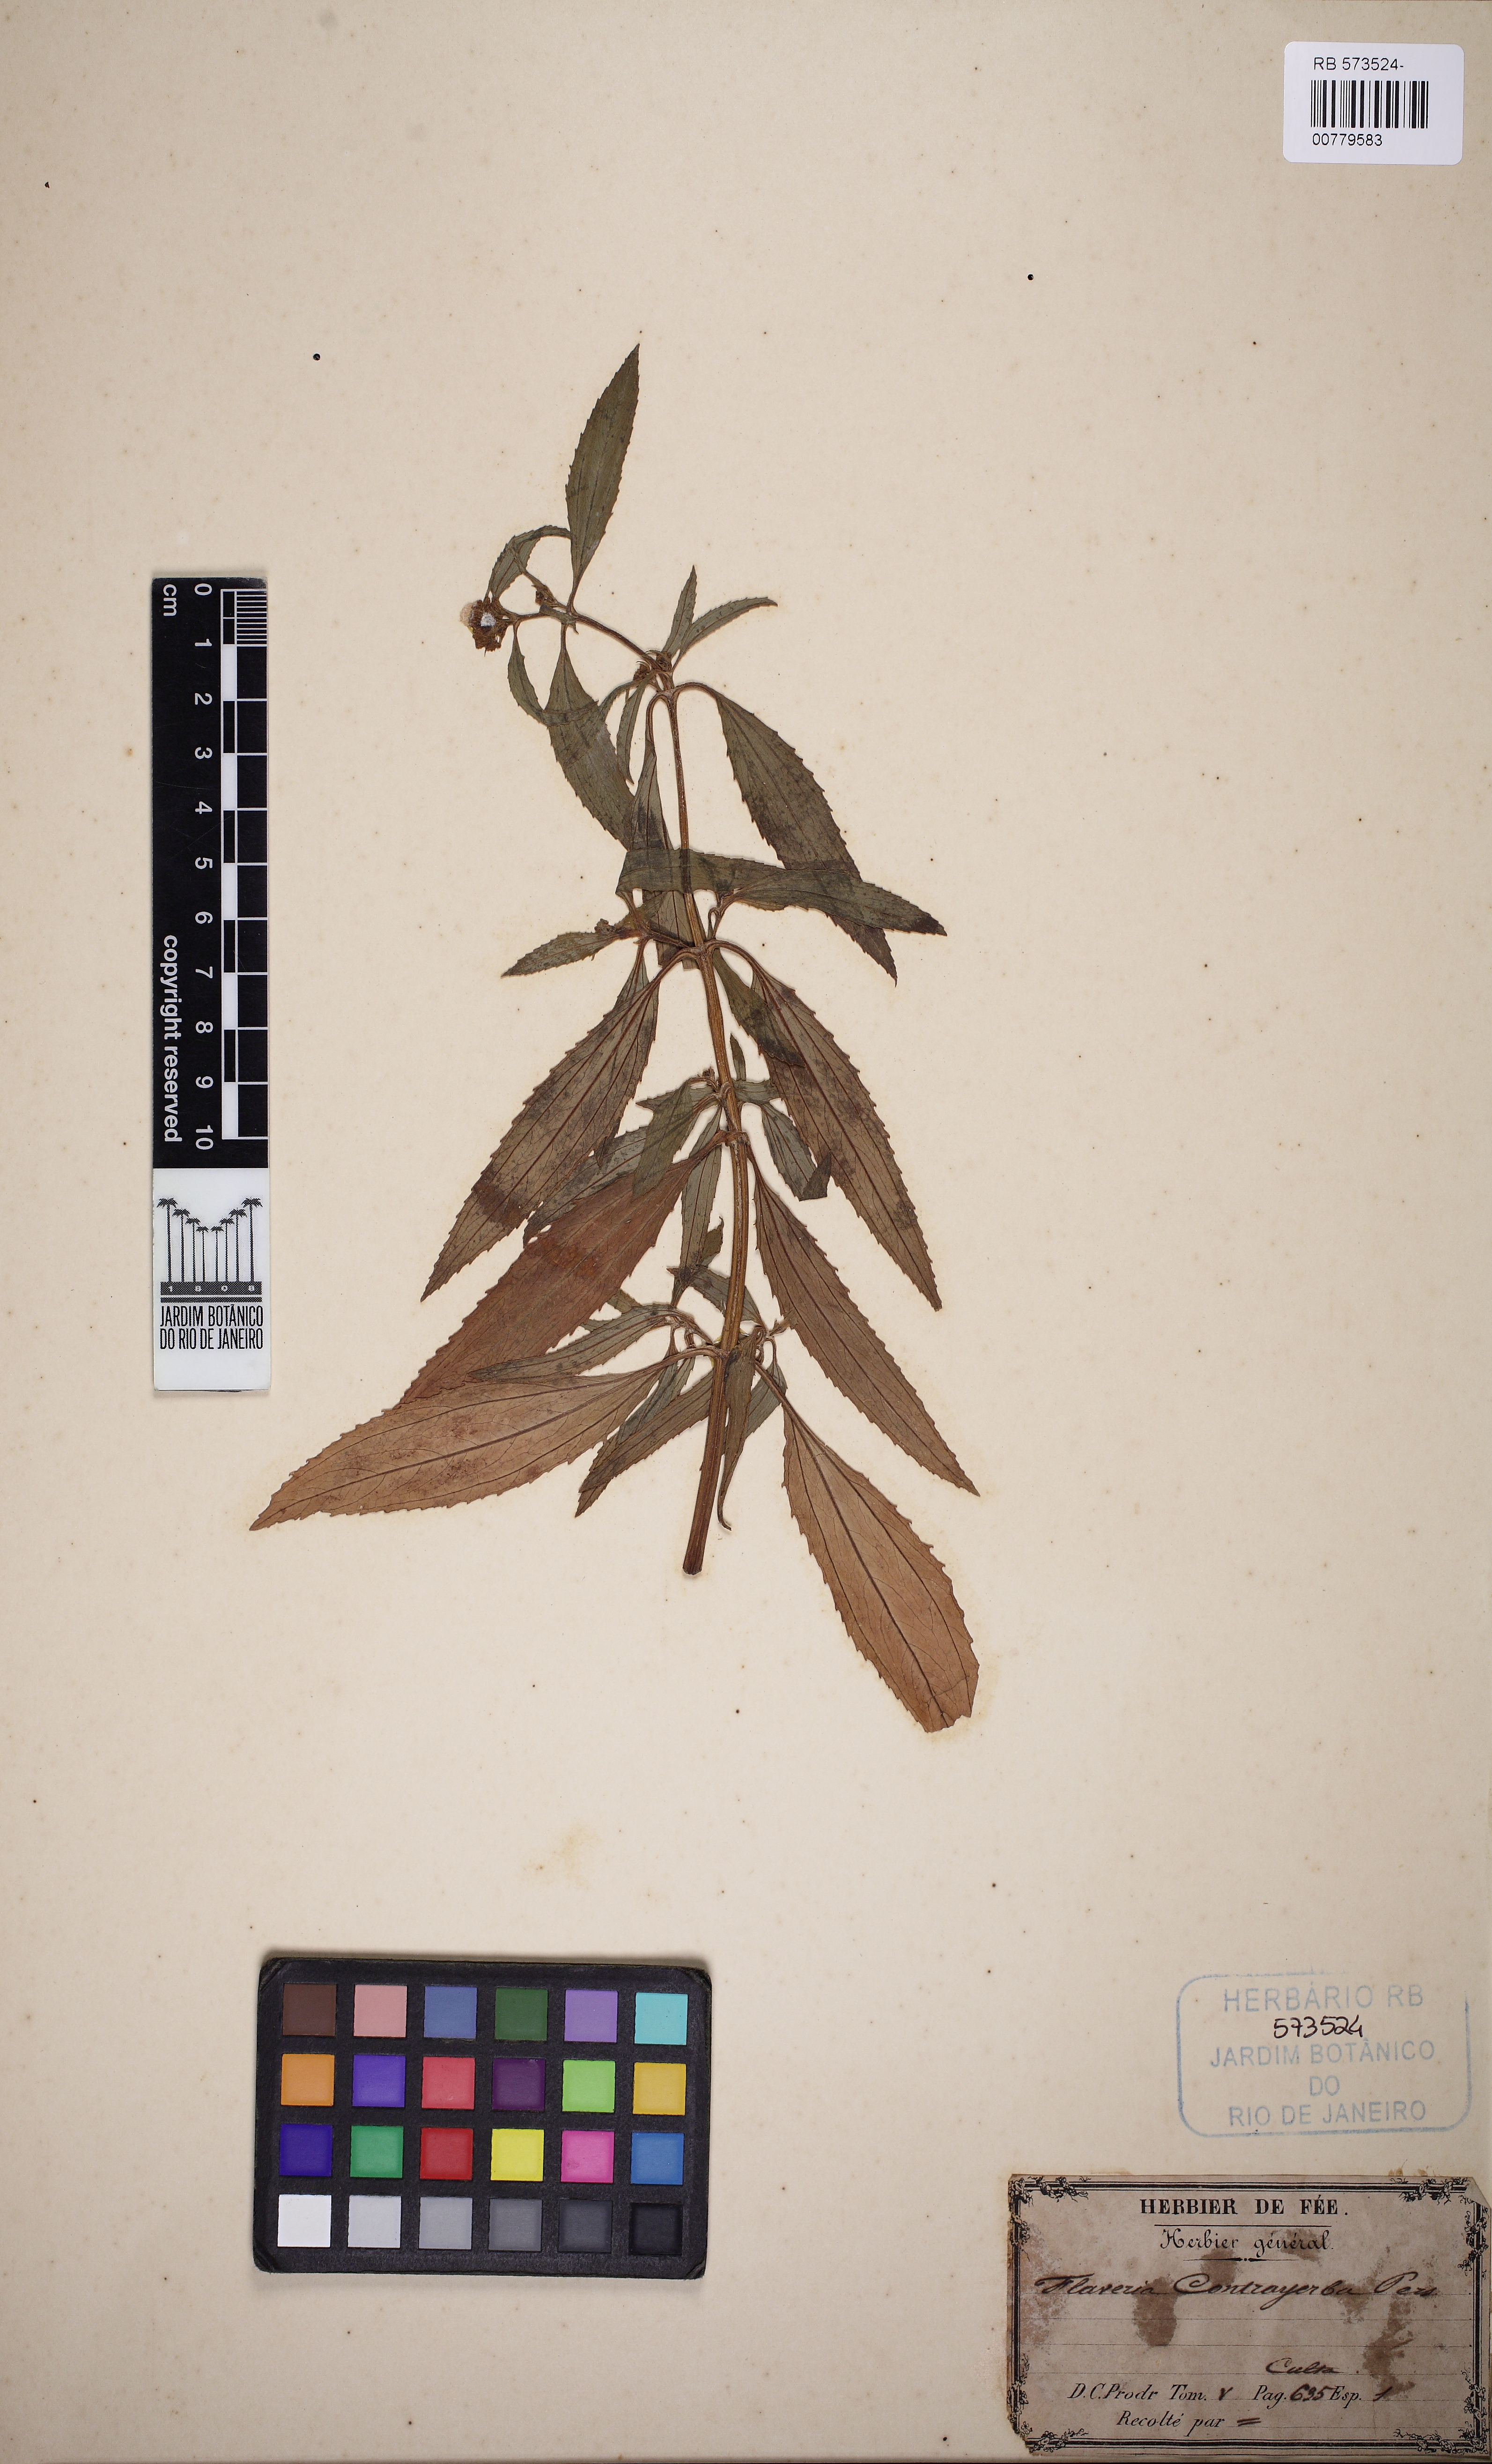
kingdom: Plantae
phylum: Tracheophyta
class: Magnoliopsida
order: Asterales
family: Asteraceae
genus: Flaveria
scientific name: Flaveria bidentis
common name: Coastal plain yellowtops
